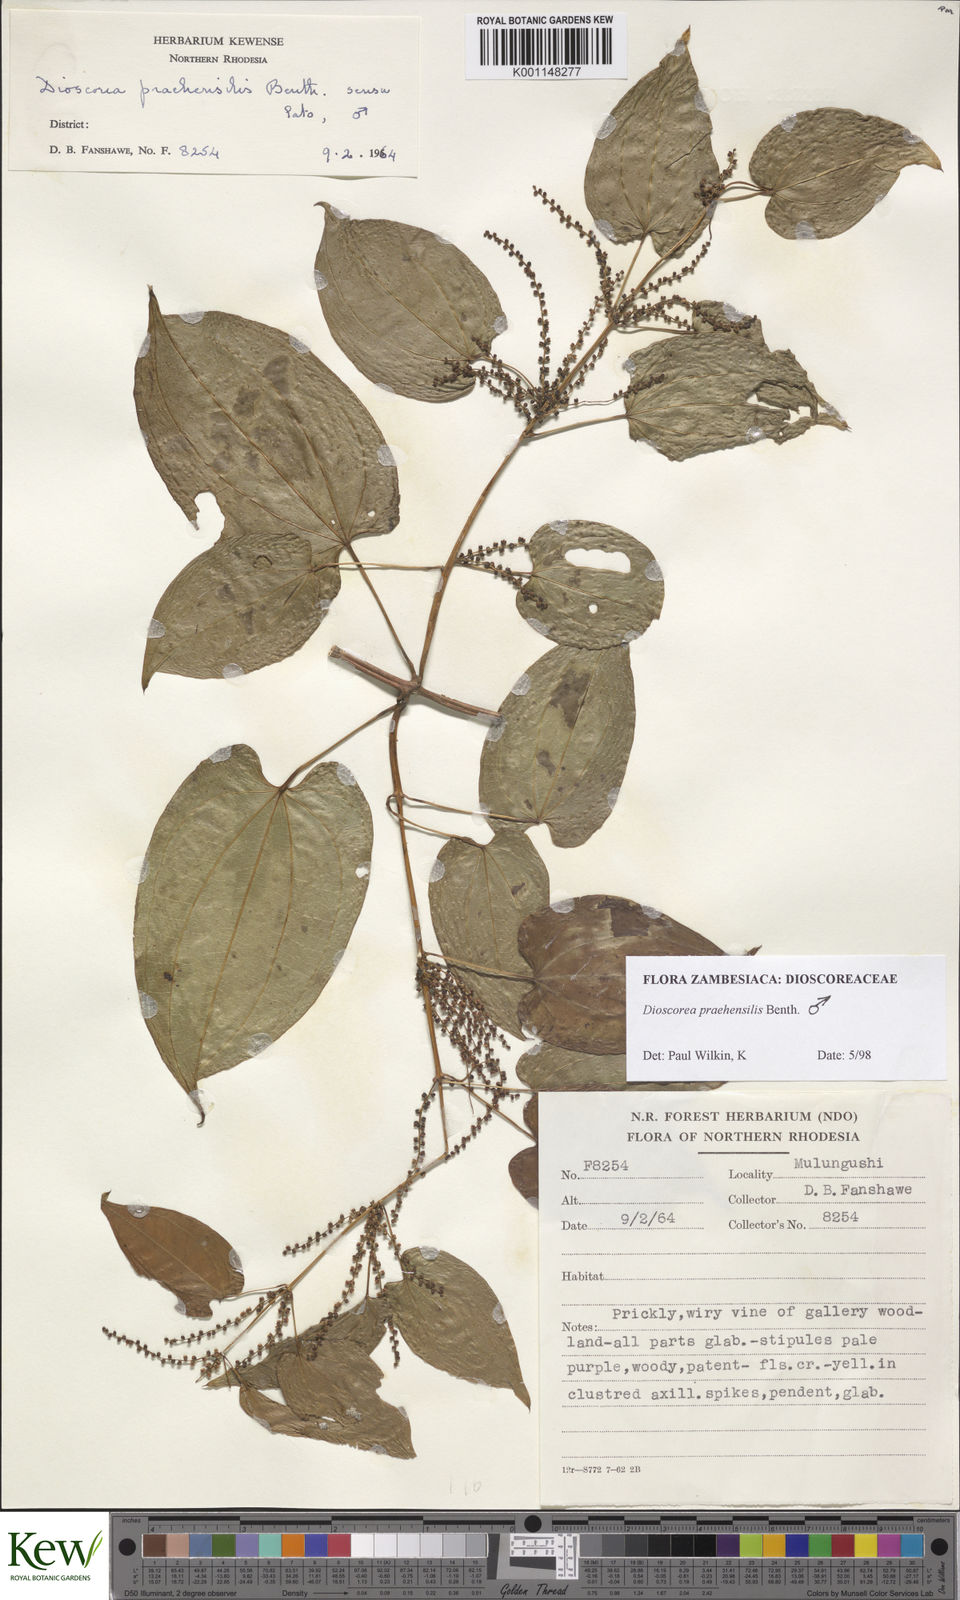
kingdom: Plantae
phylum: Tracheophyta
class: Liliopsida
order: Dioscoreales
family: Dioscoreaceae
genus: Dioscorea
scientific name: Dioscorea praehensilis
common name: Bush yam
